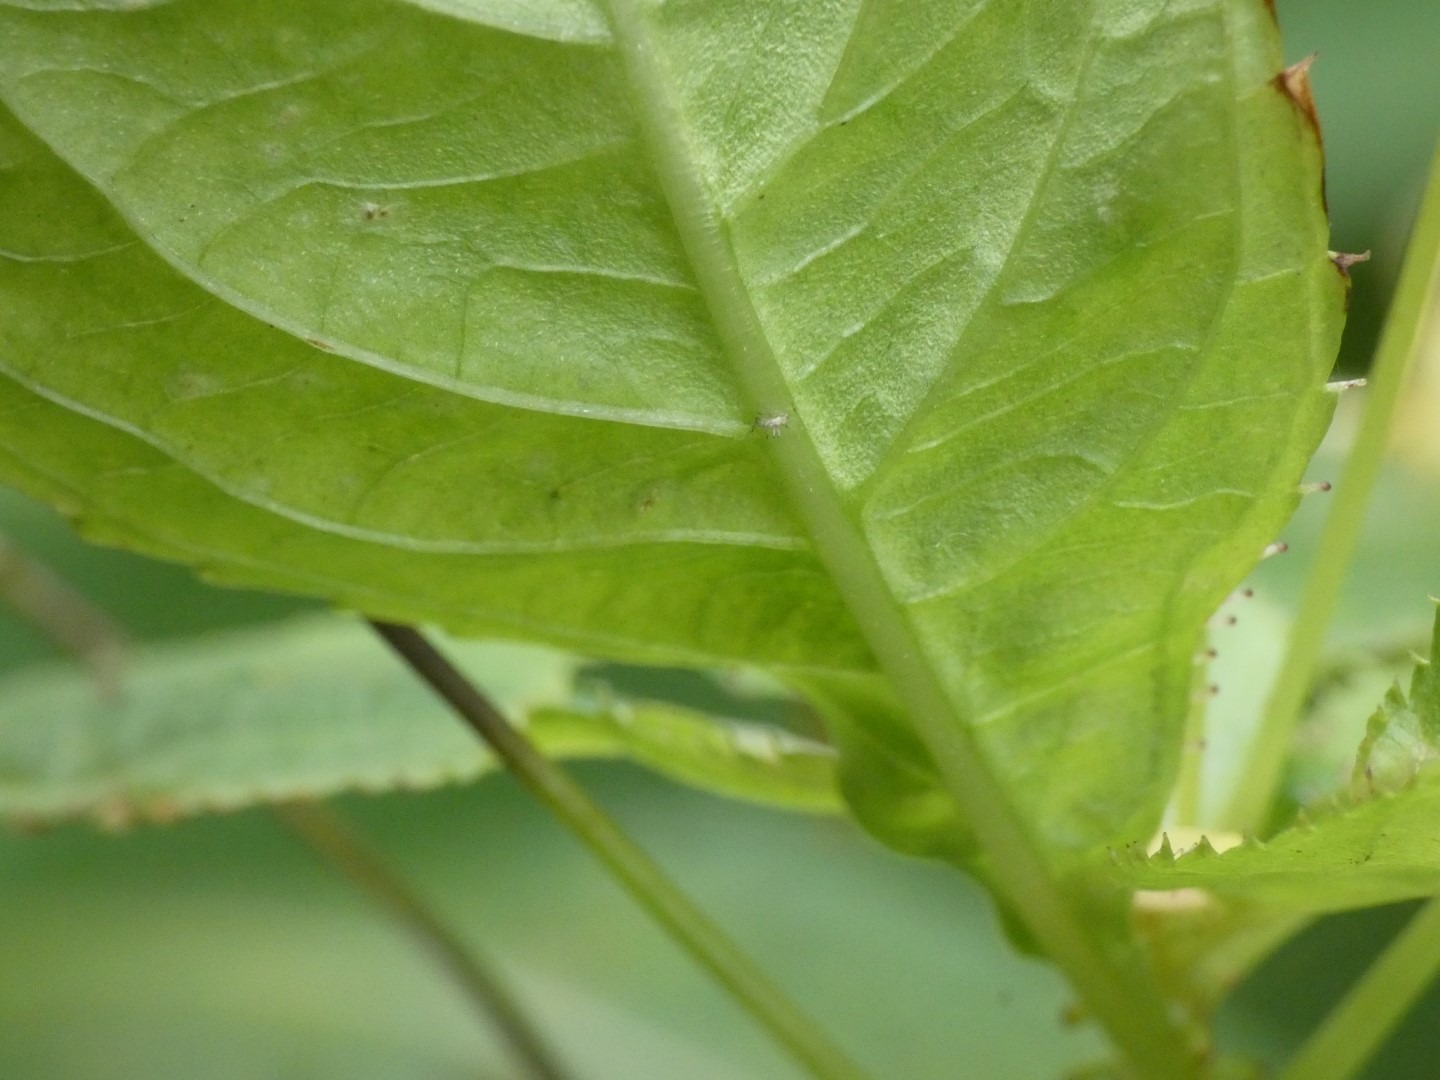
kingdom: Plantae
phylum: Tracheophyta
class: Magnoliopsida
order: Ericales
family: Balsaminaceae
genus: Impatiens
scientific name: Impatiens parviflora
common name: Småblomstret balsamin
